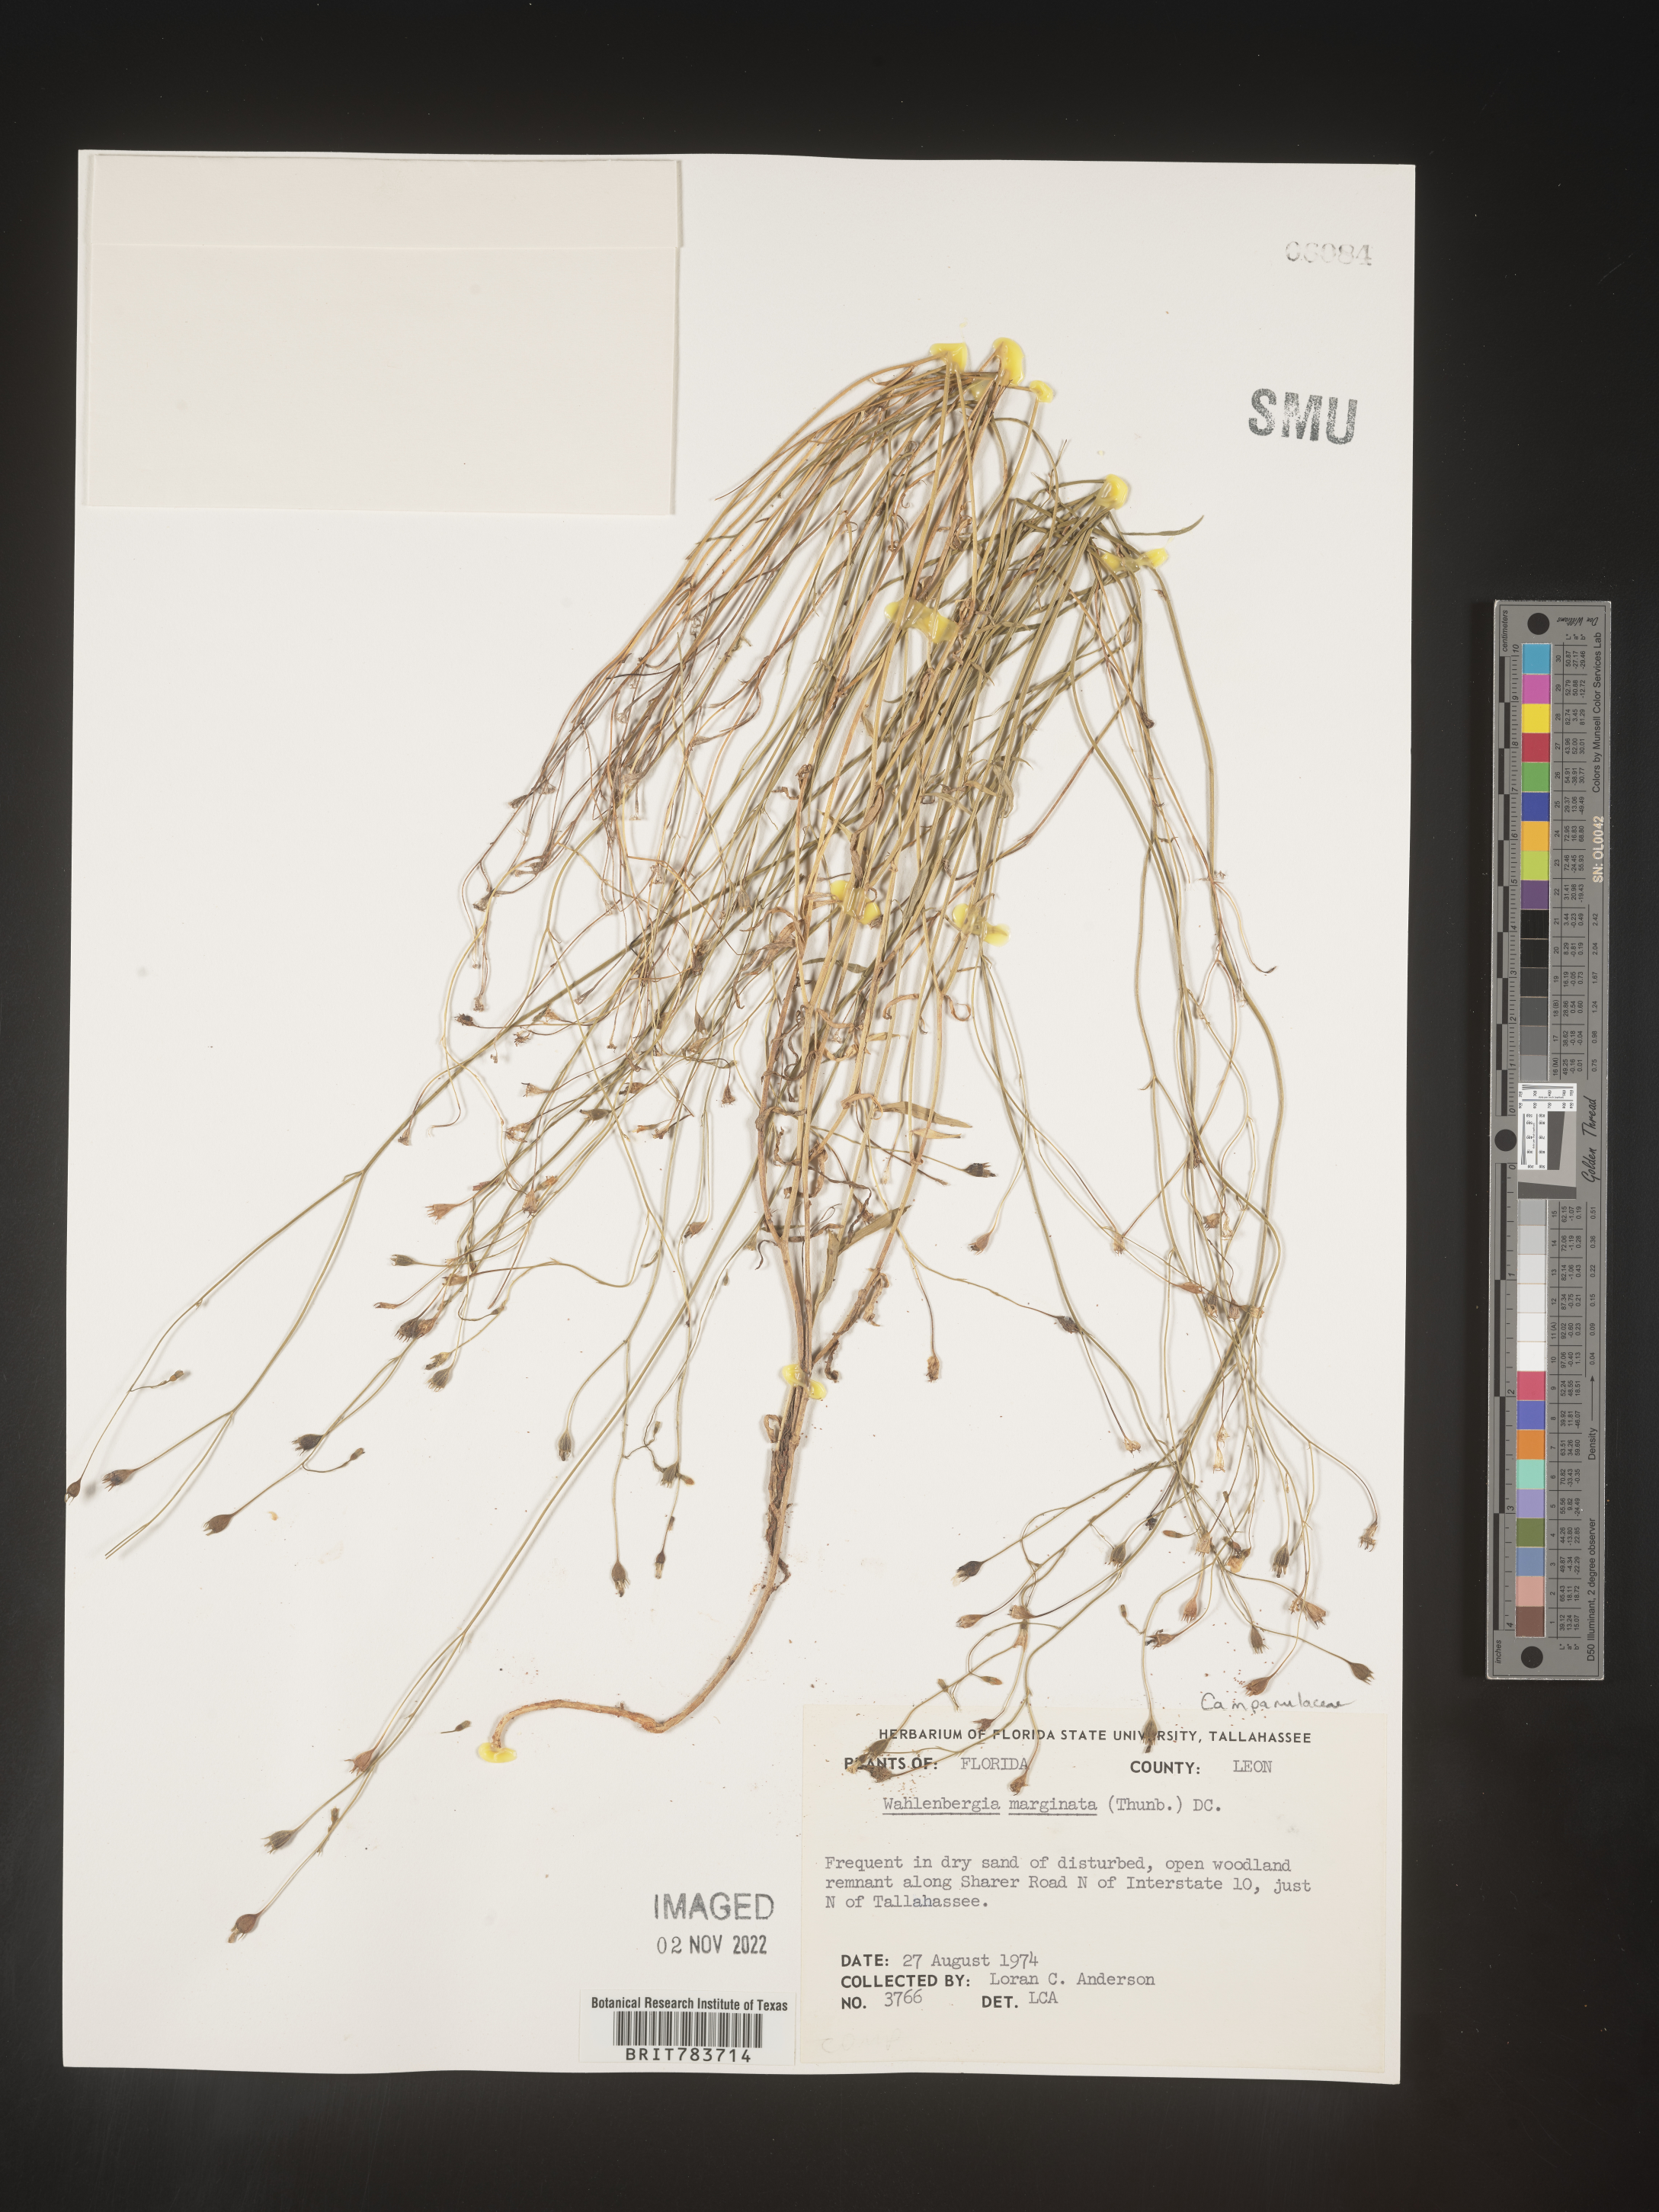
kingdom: Plantae
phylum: Tracheophyta
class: Magnoliopsida
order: Asterales
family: Campanulaceae
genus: Wahlenbergia
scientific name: Wahlenbergia marginata
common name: Southern rockbell
